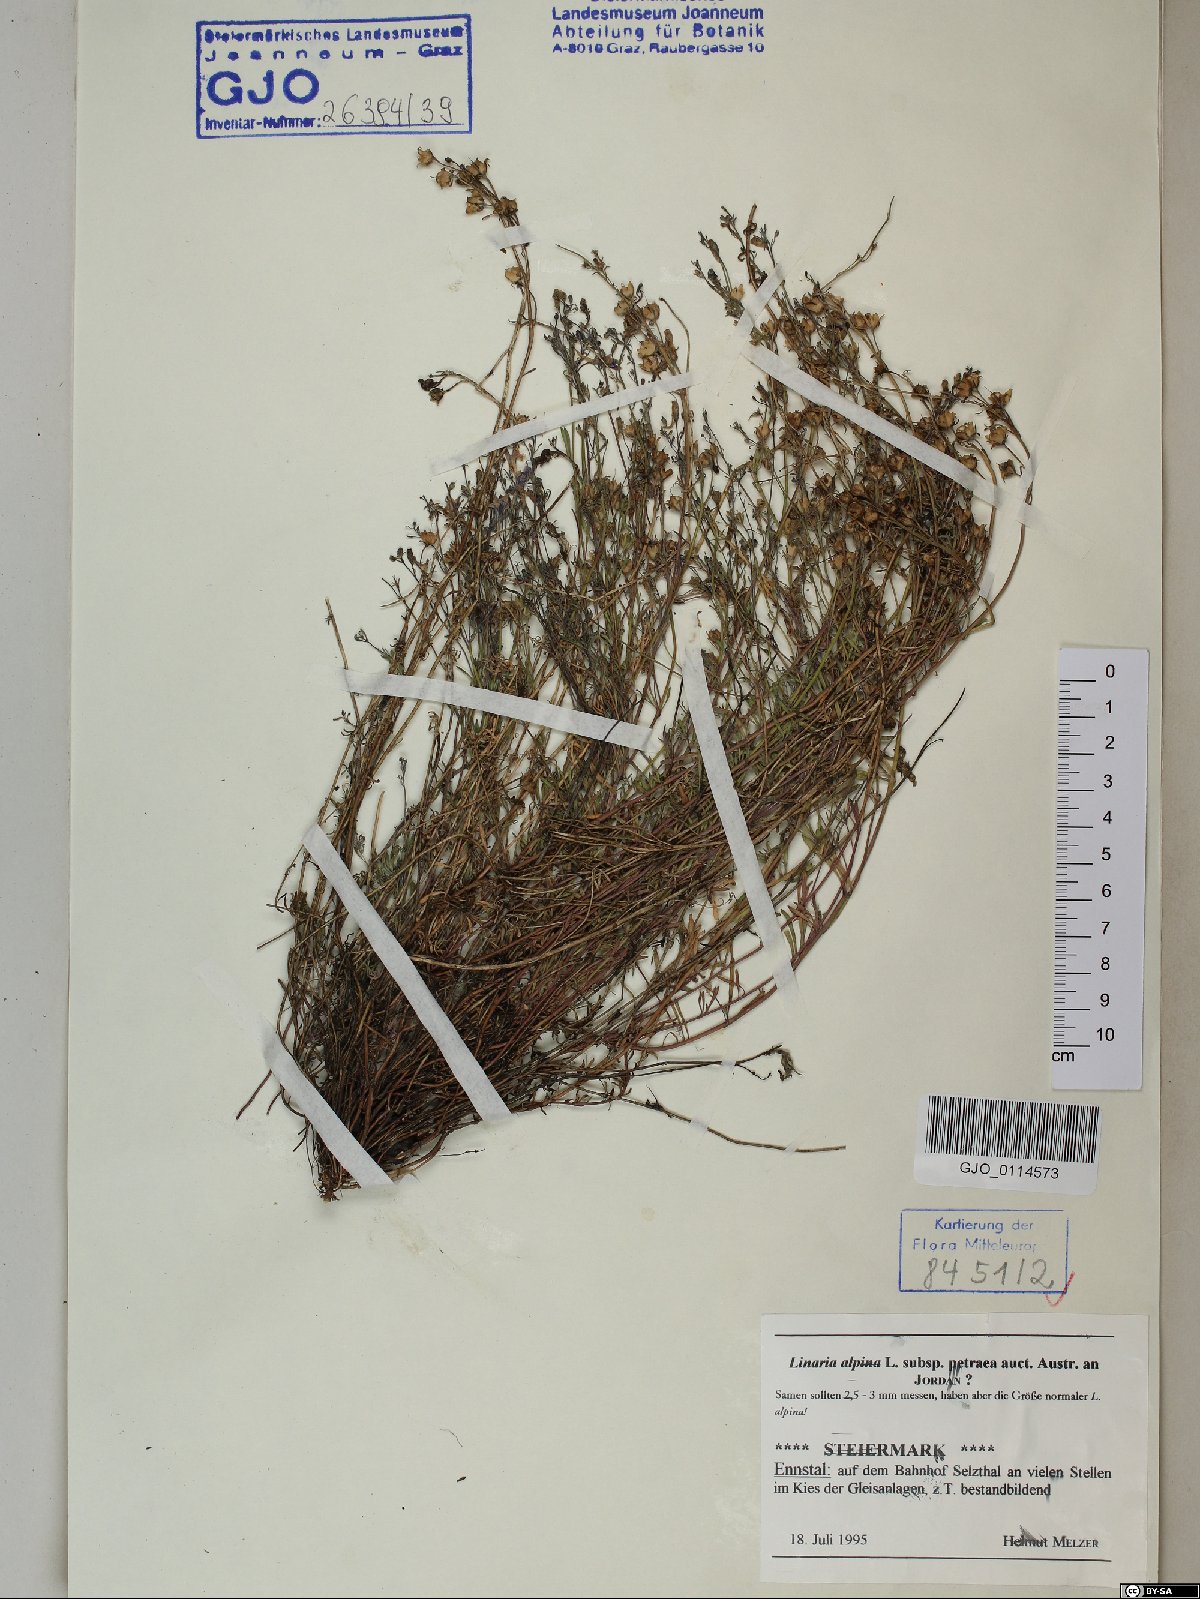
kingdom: Plantae
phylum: Tracheophyta
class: Magnoliopsida
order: Lamiales
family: Plantaginaceae
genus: Linaria
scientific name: Linaria alpina
